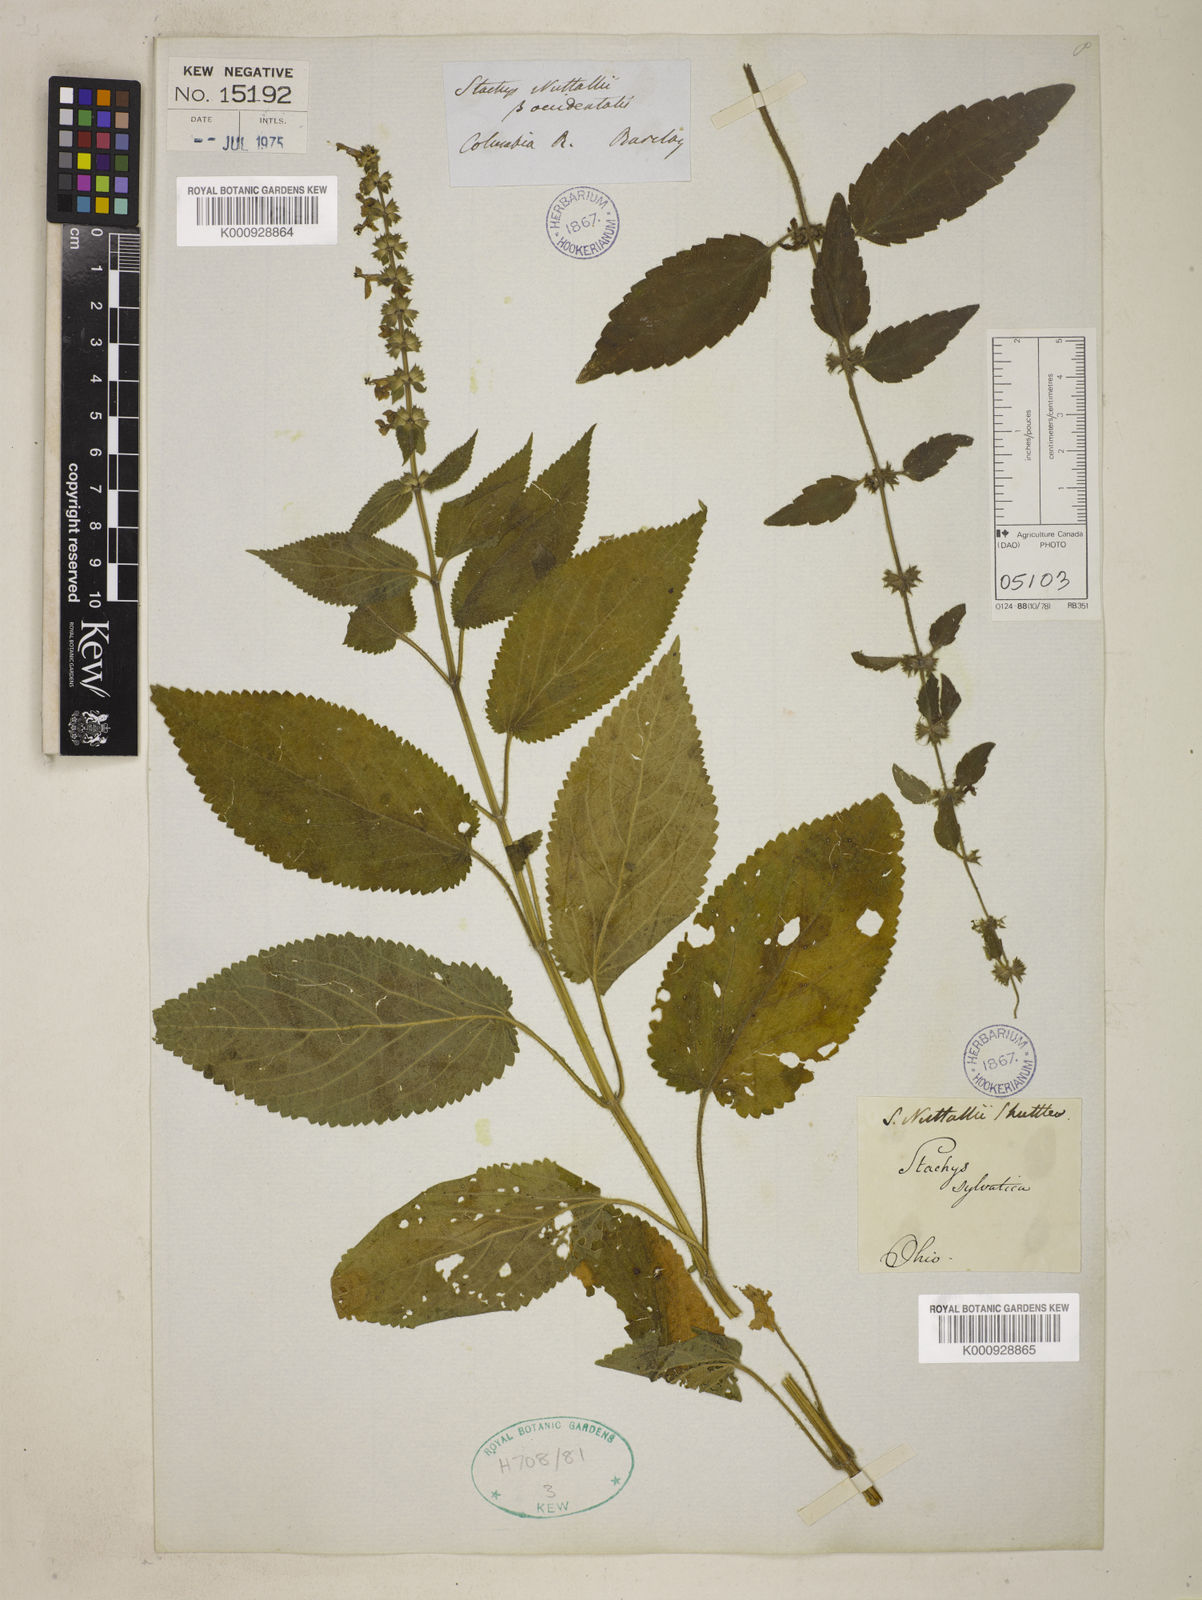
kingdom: Plantae
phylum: Tracheophyta
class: Magnoliopsida
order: Lamiales
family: Lamiaceae
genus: Stachys
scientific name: Stachys cordata
